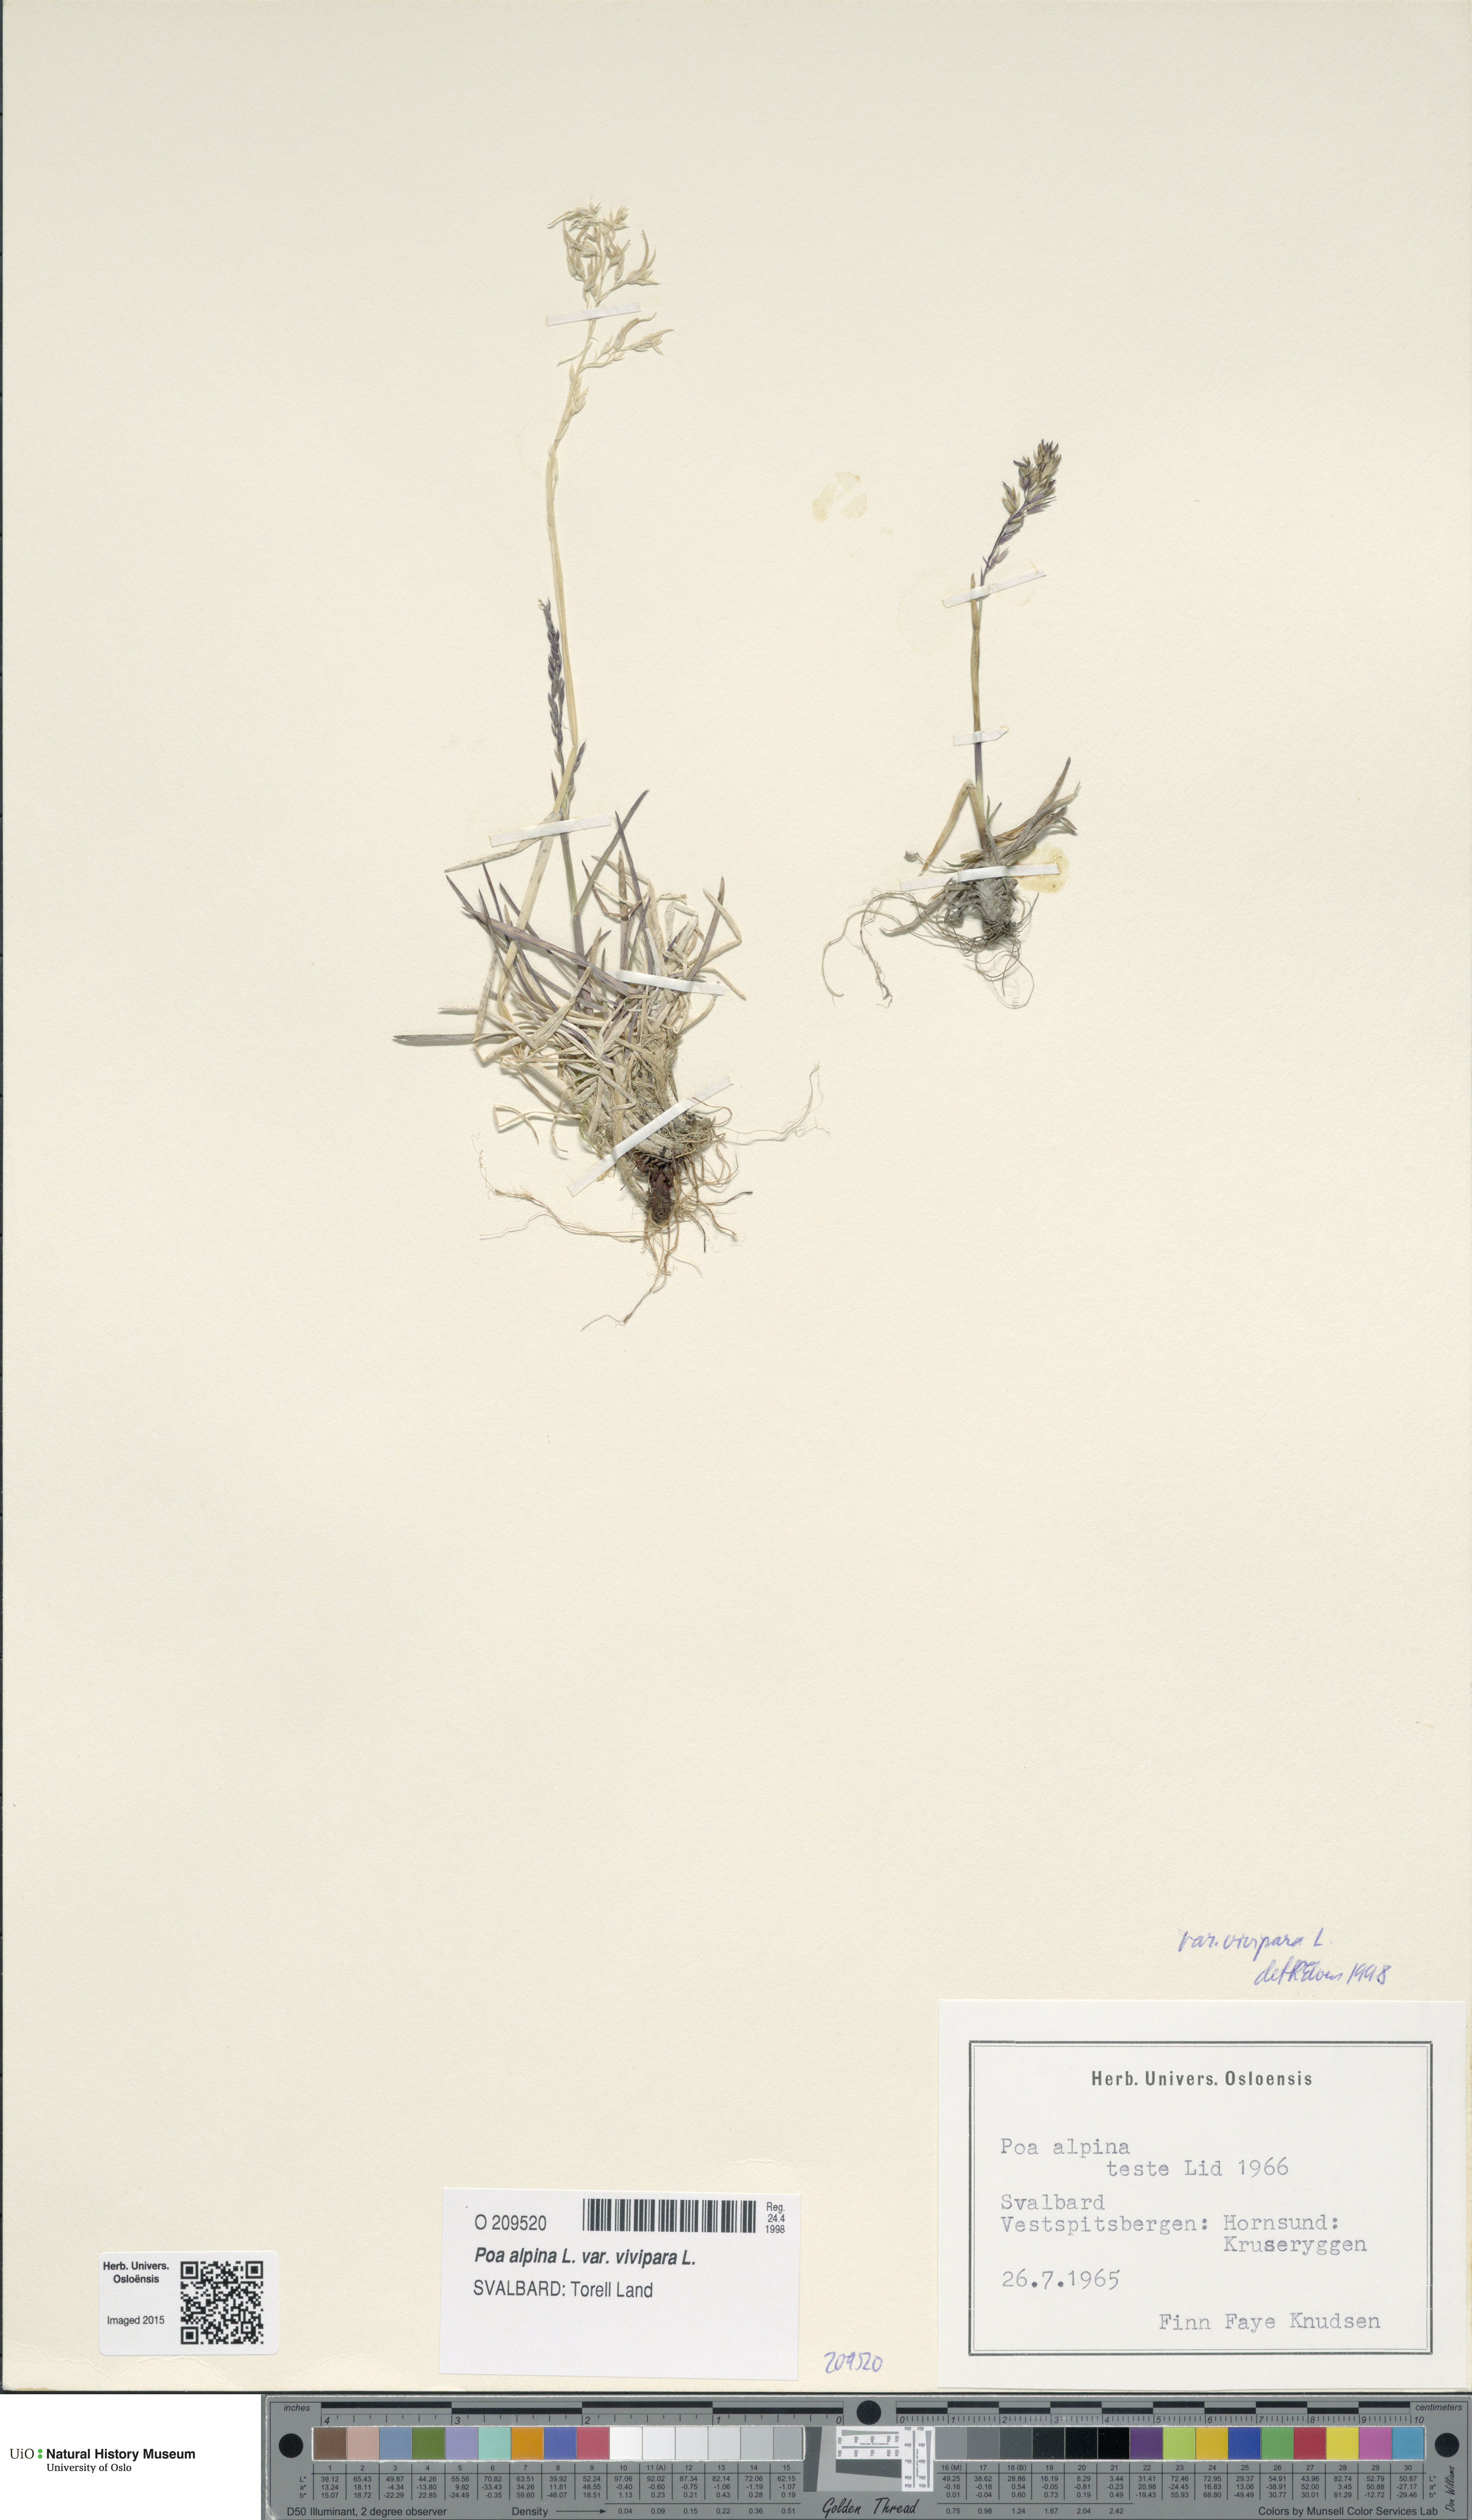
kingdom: Plantae
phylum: Tracheophyta
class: Liliopsida
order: Poales
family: Poaceae
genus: Poa
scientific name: Poa alpina
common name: Alpine bluegrass
